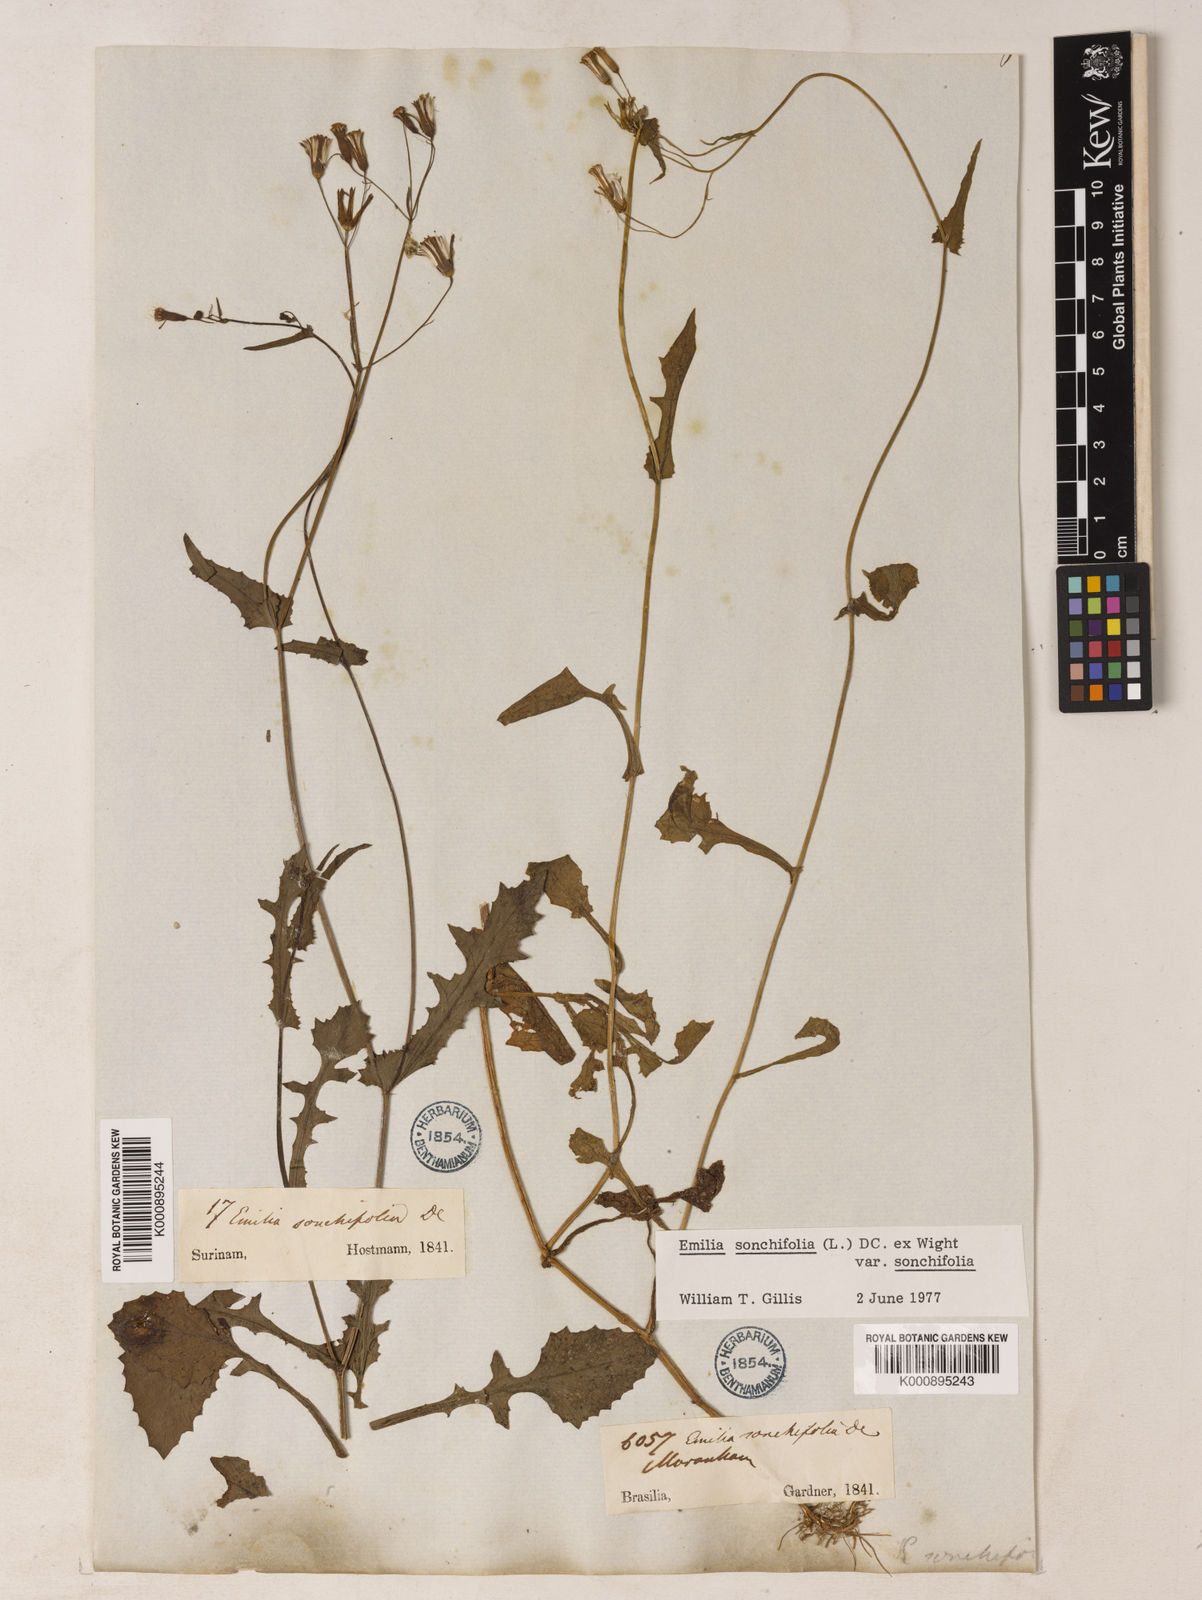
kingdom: Plantae
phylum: Tracheophyta
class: Magnoliopsida
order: Asterales
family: Asteraceae
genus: Emilia
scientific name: Emilia
